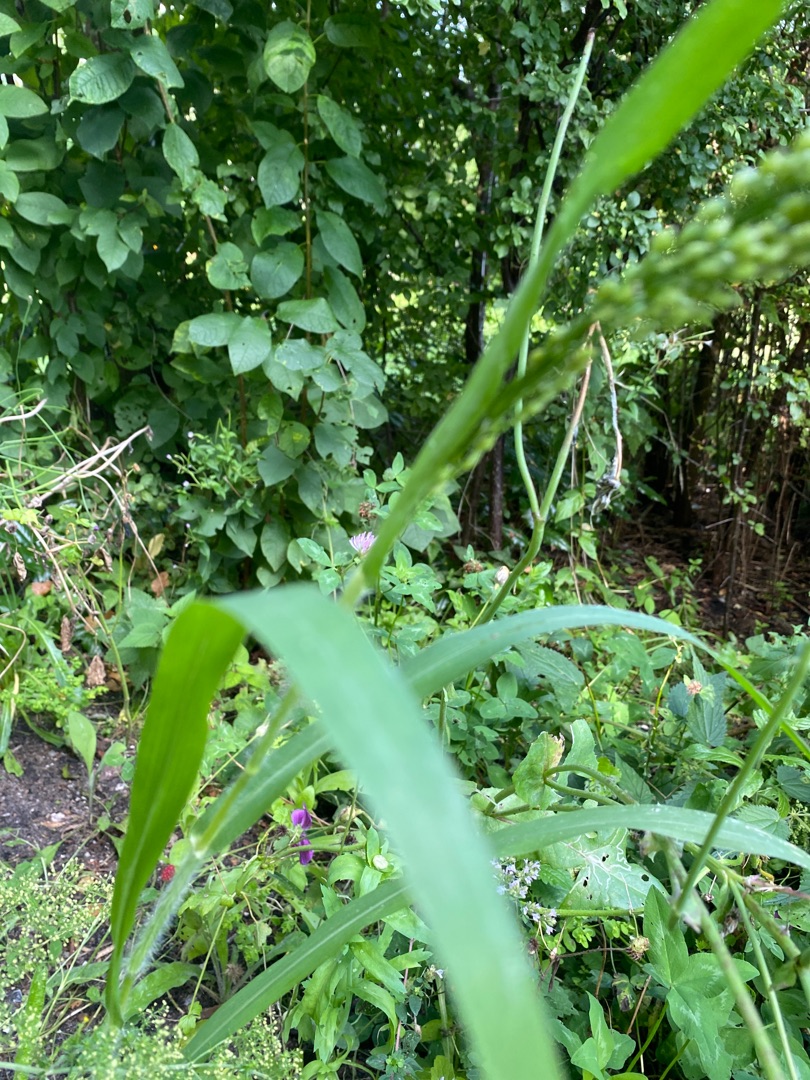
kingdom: Plantae
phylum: Tracheophyta
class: Liliopsida
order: Poales
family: Poaceae
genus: Panicum
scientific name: Panicum miliaceum
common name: Almindelig hirse
